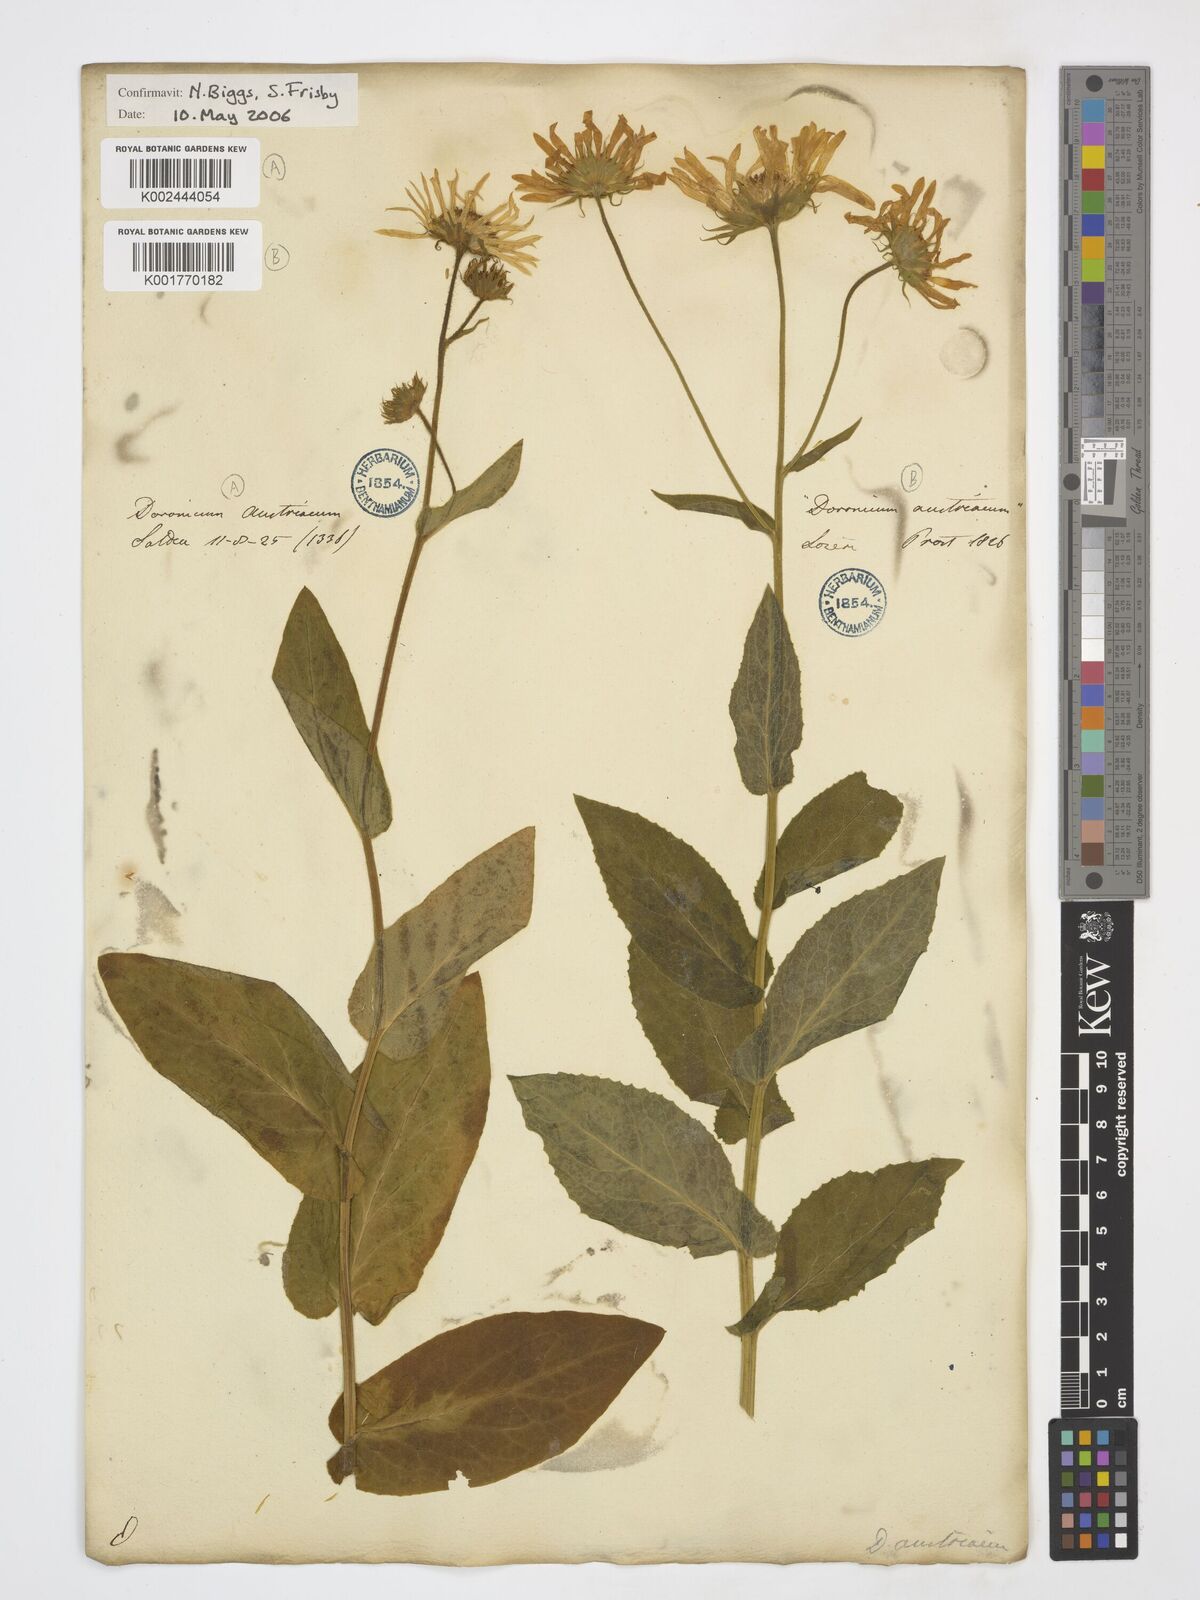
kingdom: Plantae
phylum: Tracheophyta
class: Magnoliopsida
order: Asterales
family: Asteraceae
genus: Doronicum
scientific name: Doronicum austriacum
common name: Austrian leopard's-bane
